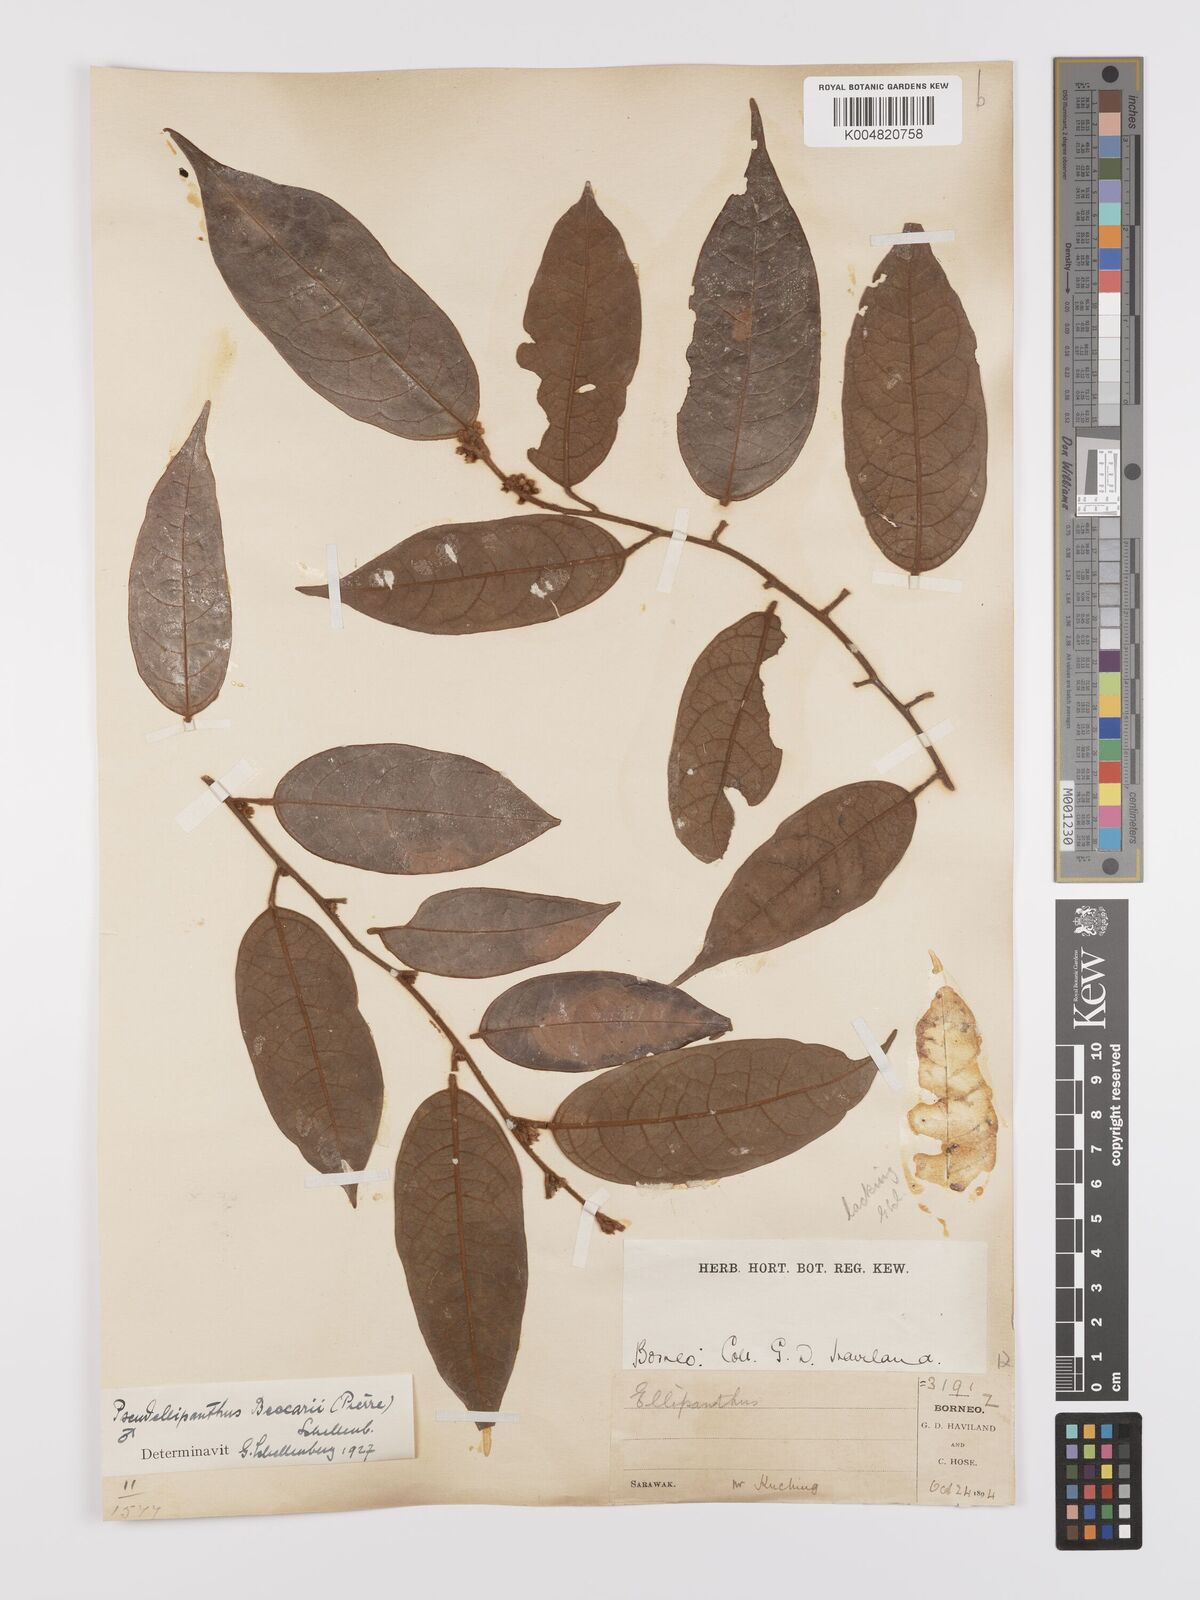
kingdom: Plantae
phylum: Tracheophyta
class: Magnoliopsida
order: Oxalidales
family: Connaraceae
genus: Ellipanthus
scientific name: Ellipanthus beccarii
